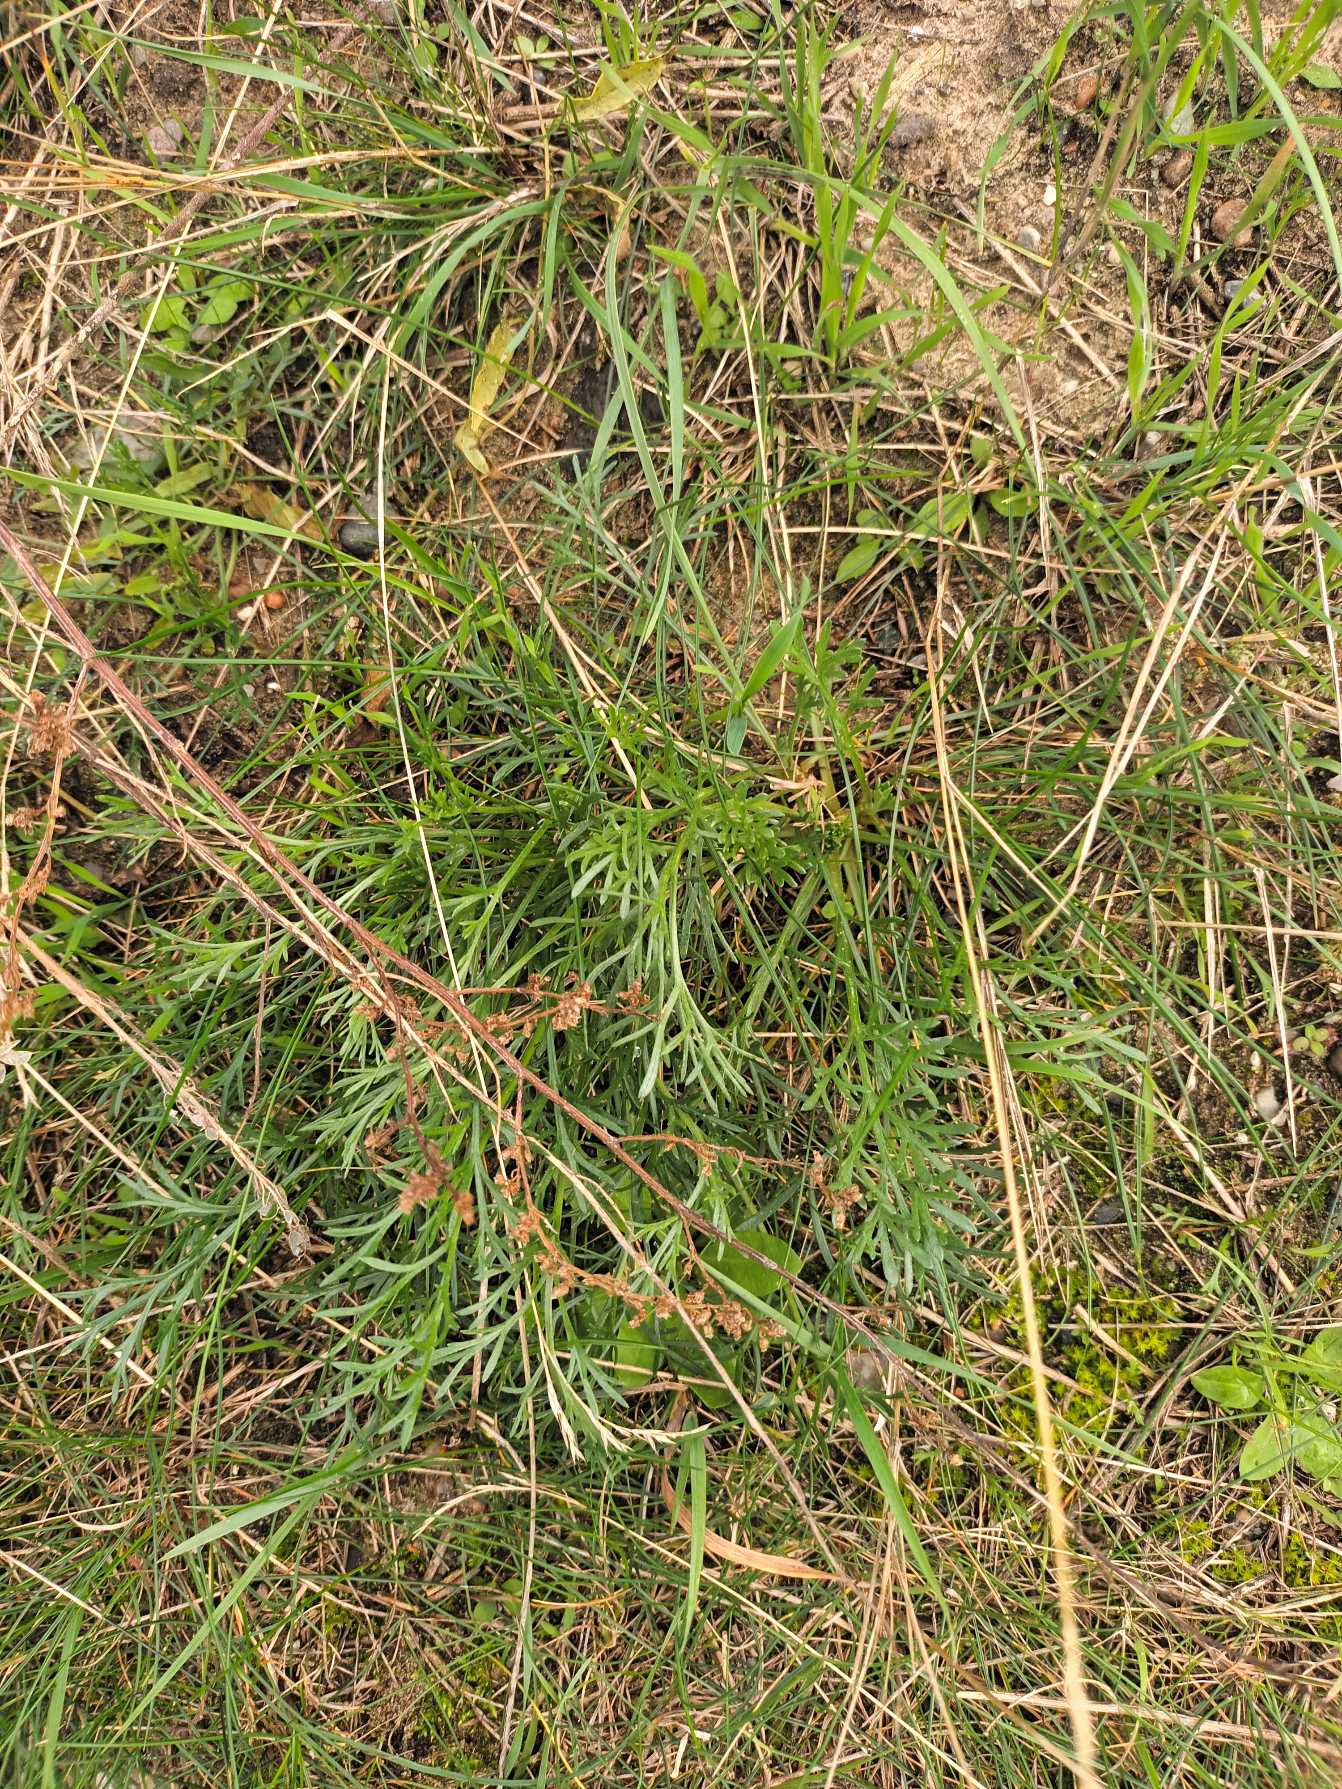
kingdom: Plantae
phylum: Tracheophyta
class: Magnoliopsida
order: Asterales
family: Asteraceae
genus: Artemisia
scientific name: Artemisia campestris
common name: Mark-bynke
